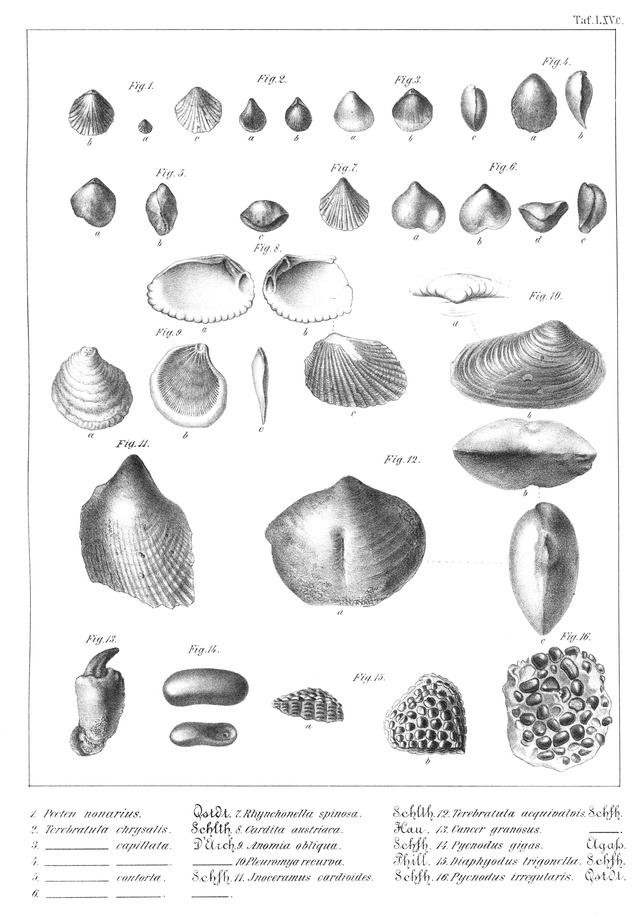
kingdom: Animalia
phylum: Chordata
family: Pycnodontidae
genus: Pycnodus
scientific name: Pycnodus gigas
